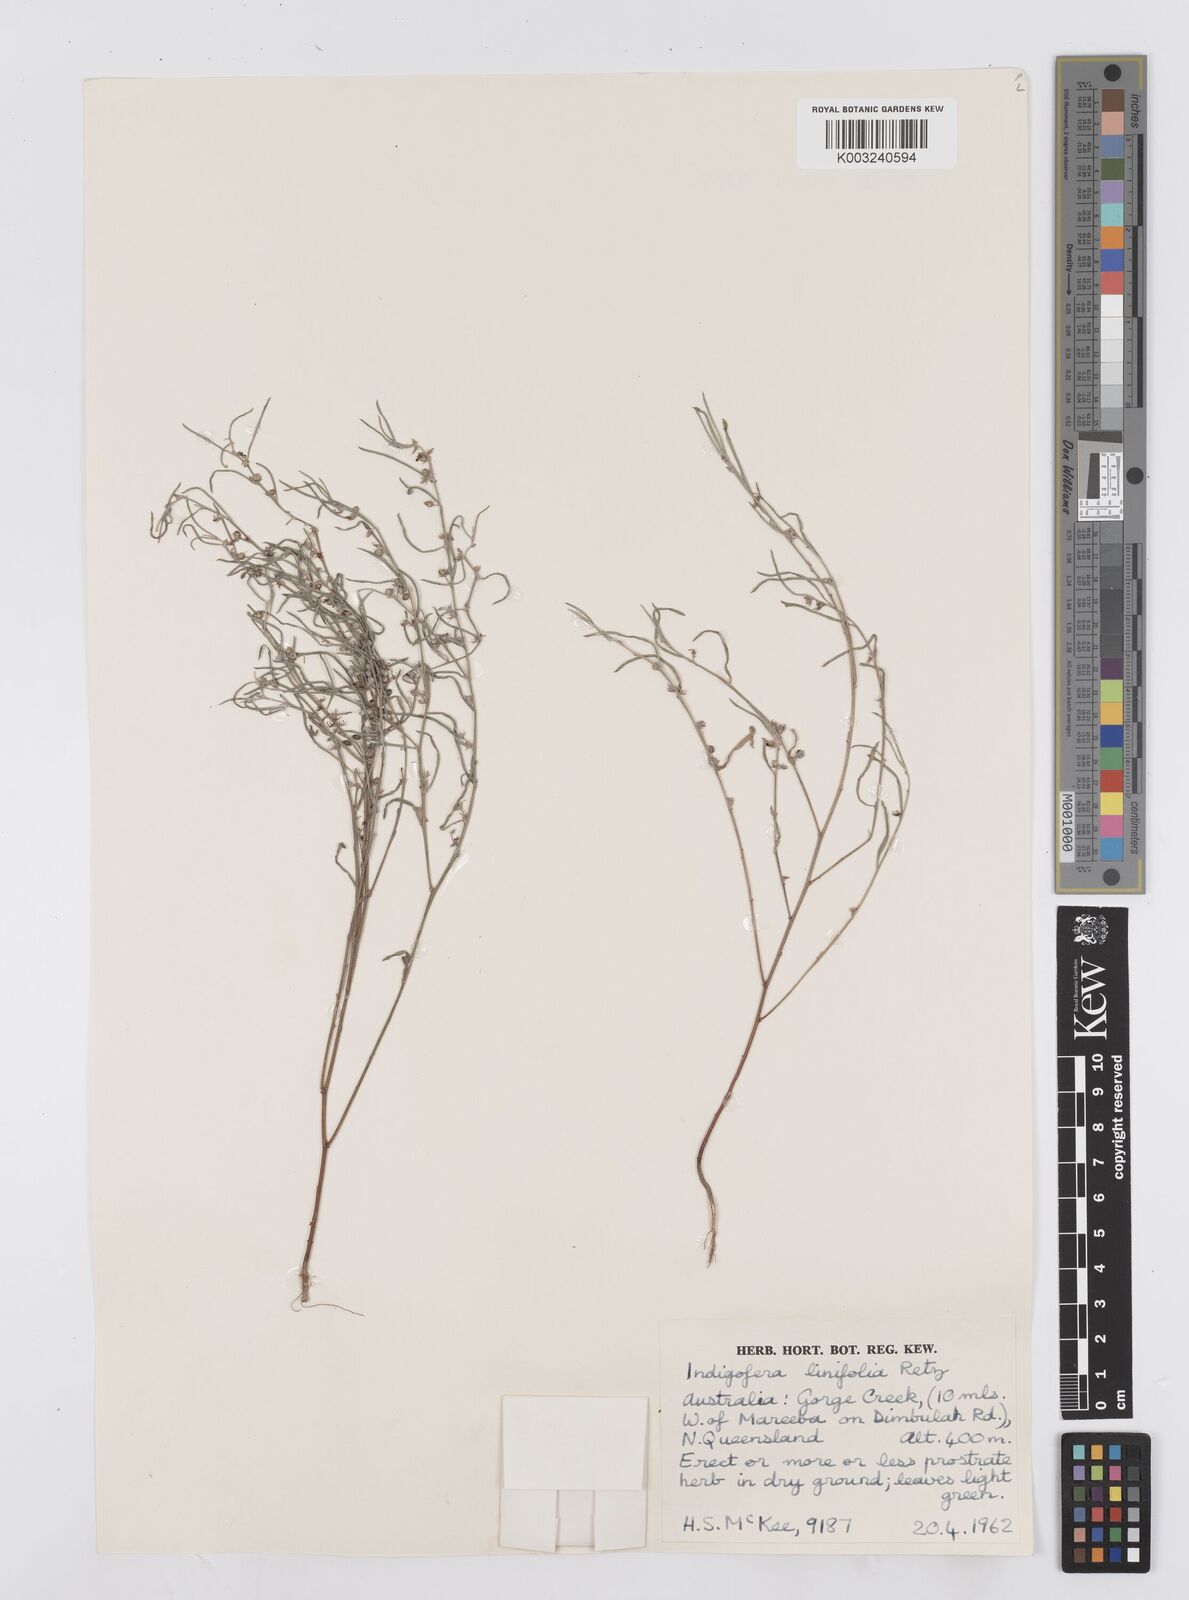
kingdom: Plantae
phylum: Tracheophyta
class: Magnoliopsida
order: Fabales
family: Fabaceae
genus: Indigofera
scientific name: Indigofera linifolia
